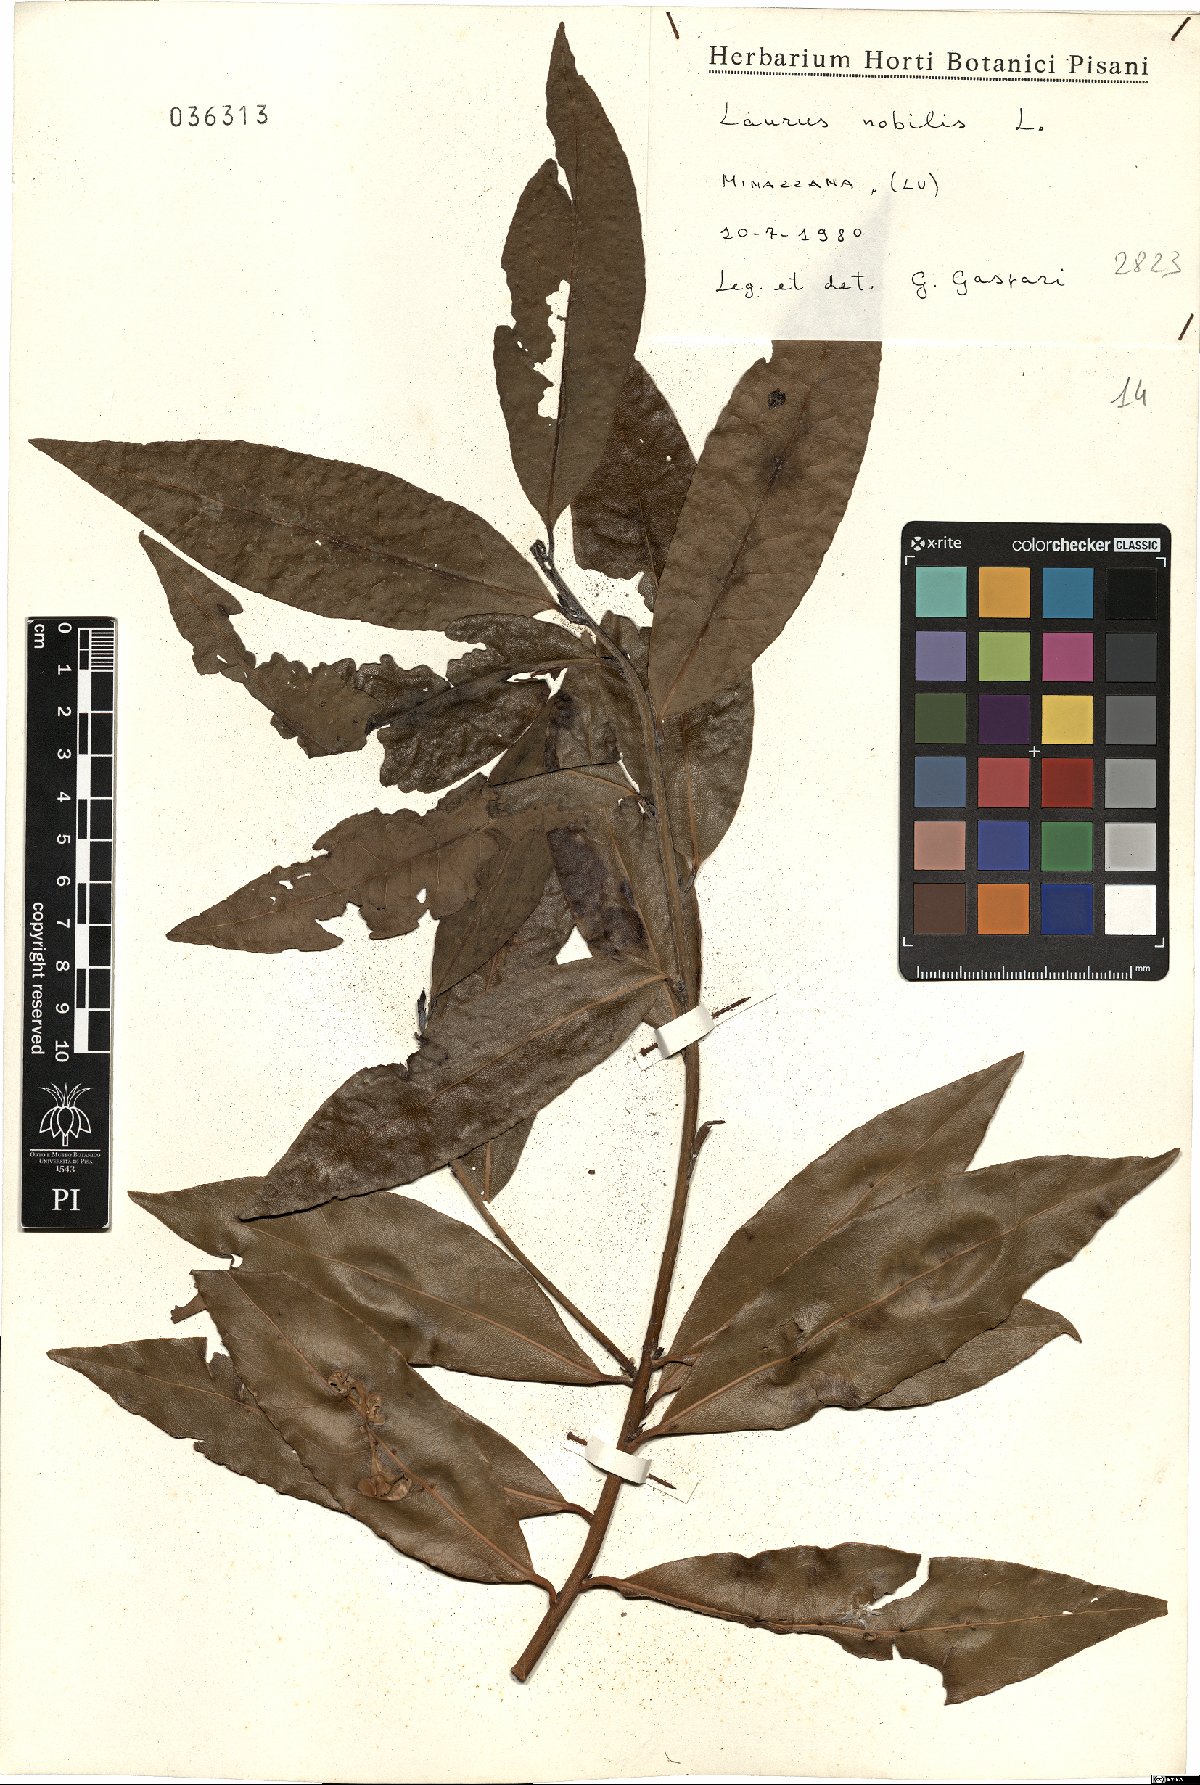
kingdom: Plantae
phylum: Tracheophyta
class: Magnoliopsida
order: Laurales
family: Lauraceae
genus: Laurus
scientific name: Laurus nobilis
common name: Bay
